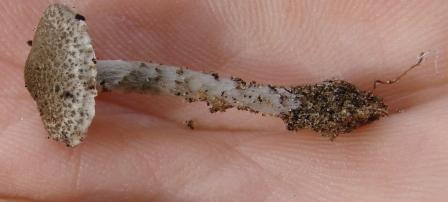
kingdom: Fungi
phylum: Basidiomycota
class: Agaricomycetes
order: Agaricales
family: Agaricaceae
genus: Lepiota
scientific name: Lepiota griseovirens
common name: grågrøn parasolhat
